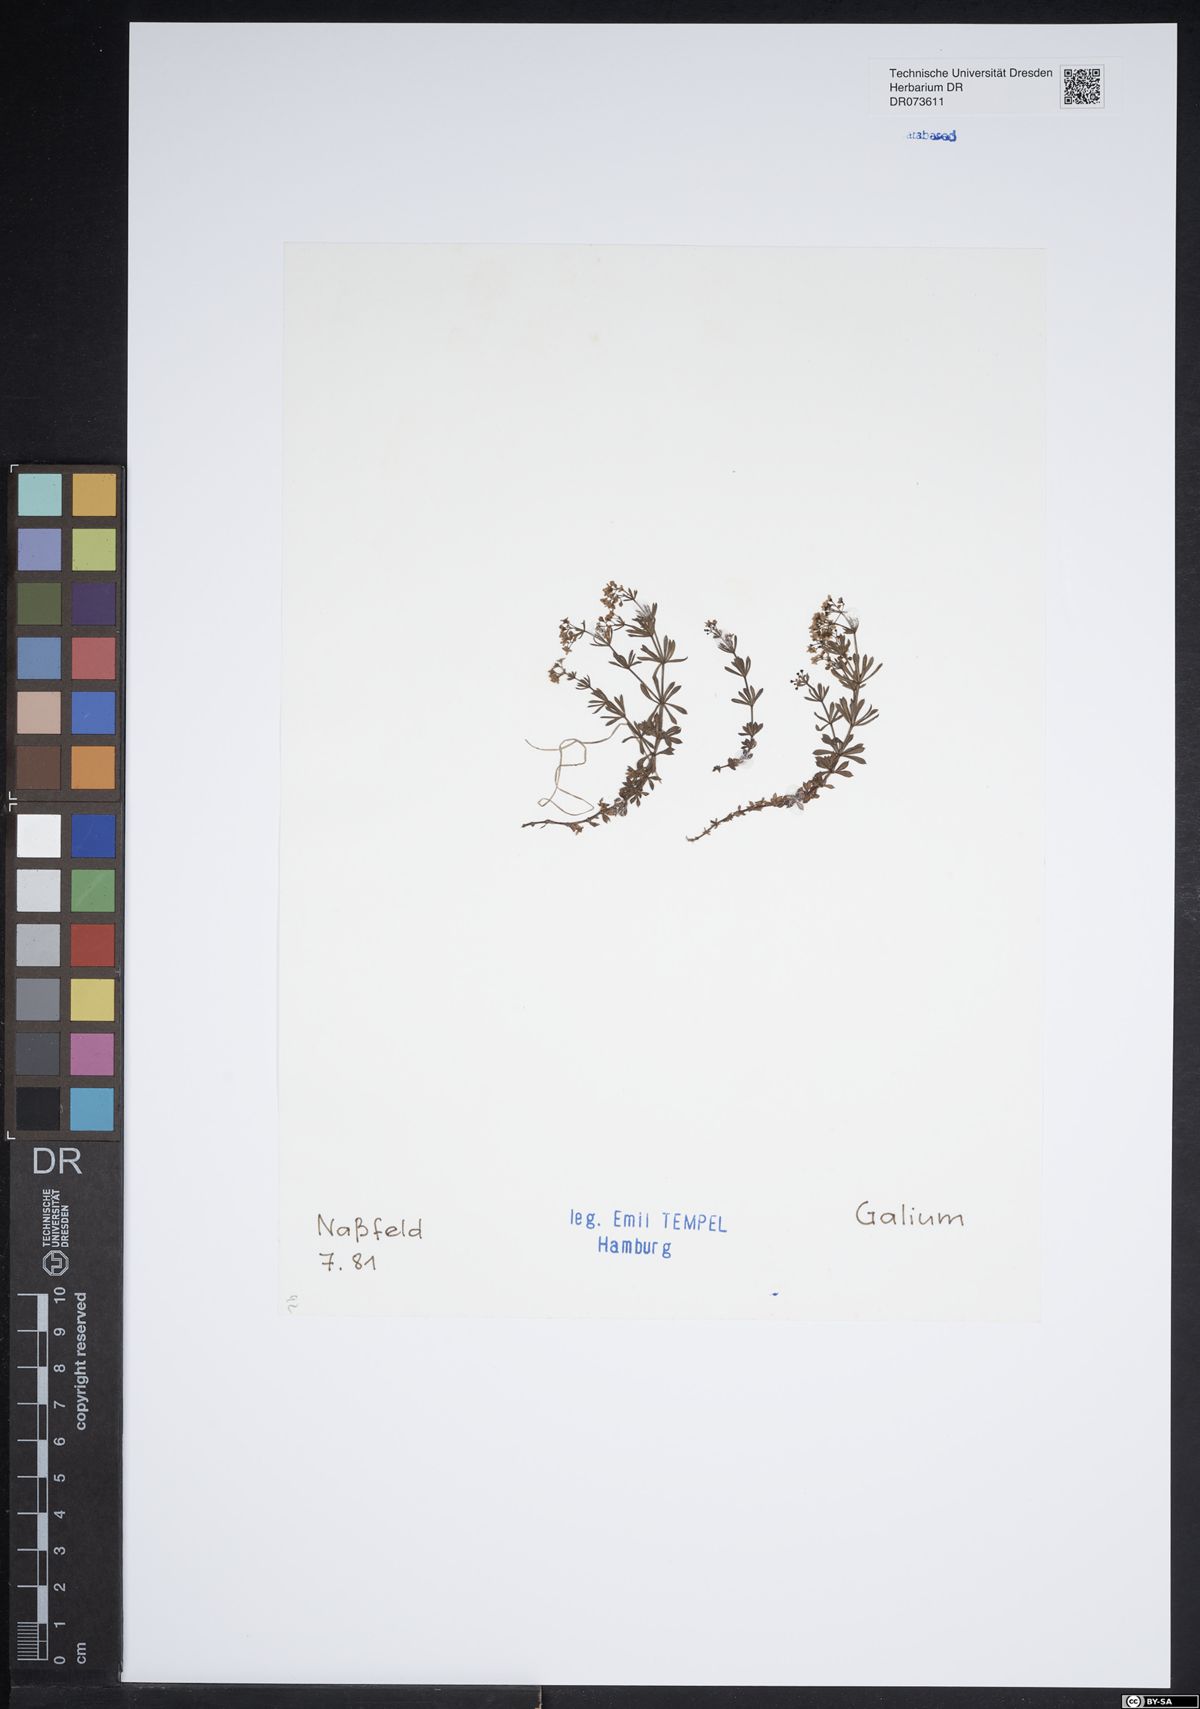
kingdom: Plantae
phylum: Tracheophyta
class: Magnoliopsida
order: Gentianales
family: Rubiaceae
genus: Galium
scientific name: Galium
